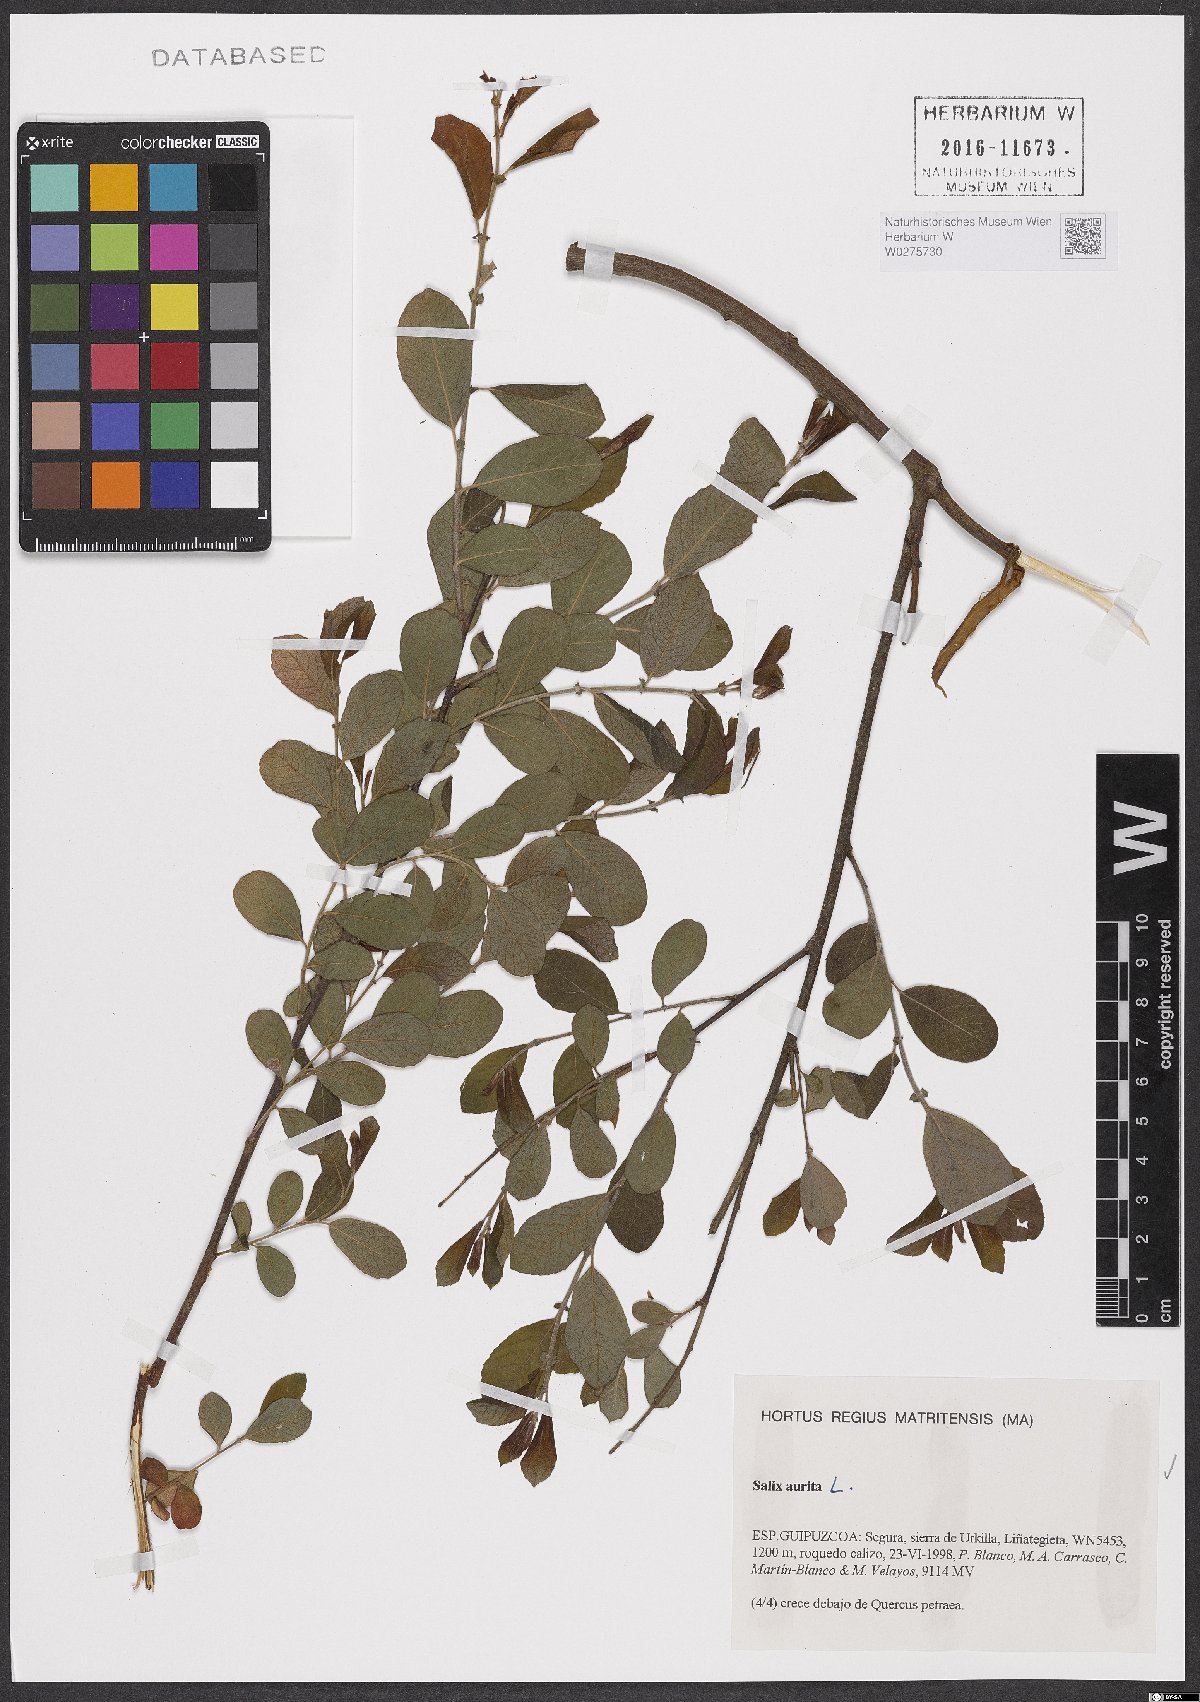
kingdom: Plantae
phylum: Tracheophyta
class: Magnoliopsida
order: Malpighiales
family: Salicaceae
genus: Salix
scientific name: Salix aurita
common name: Eared willow
